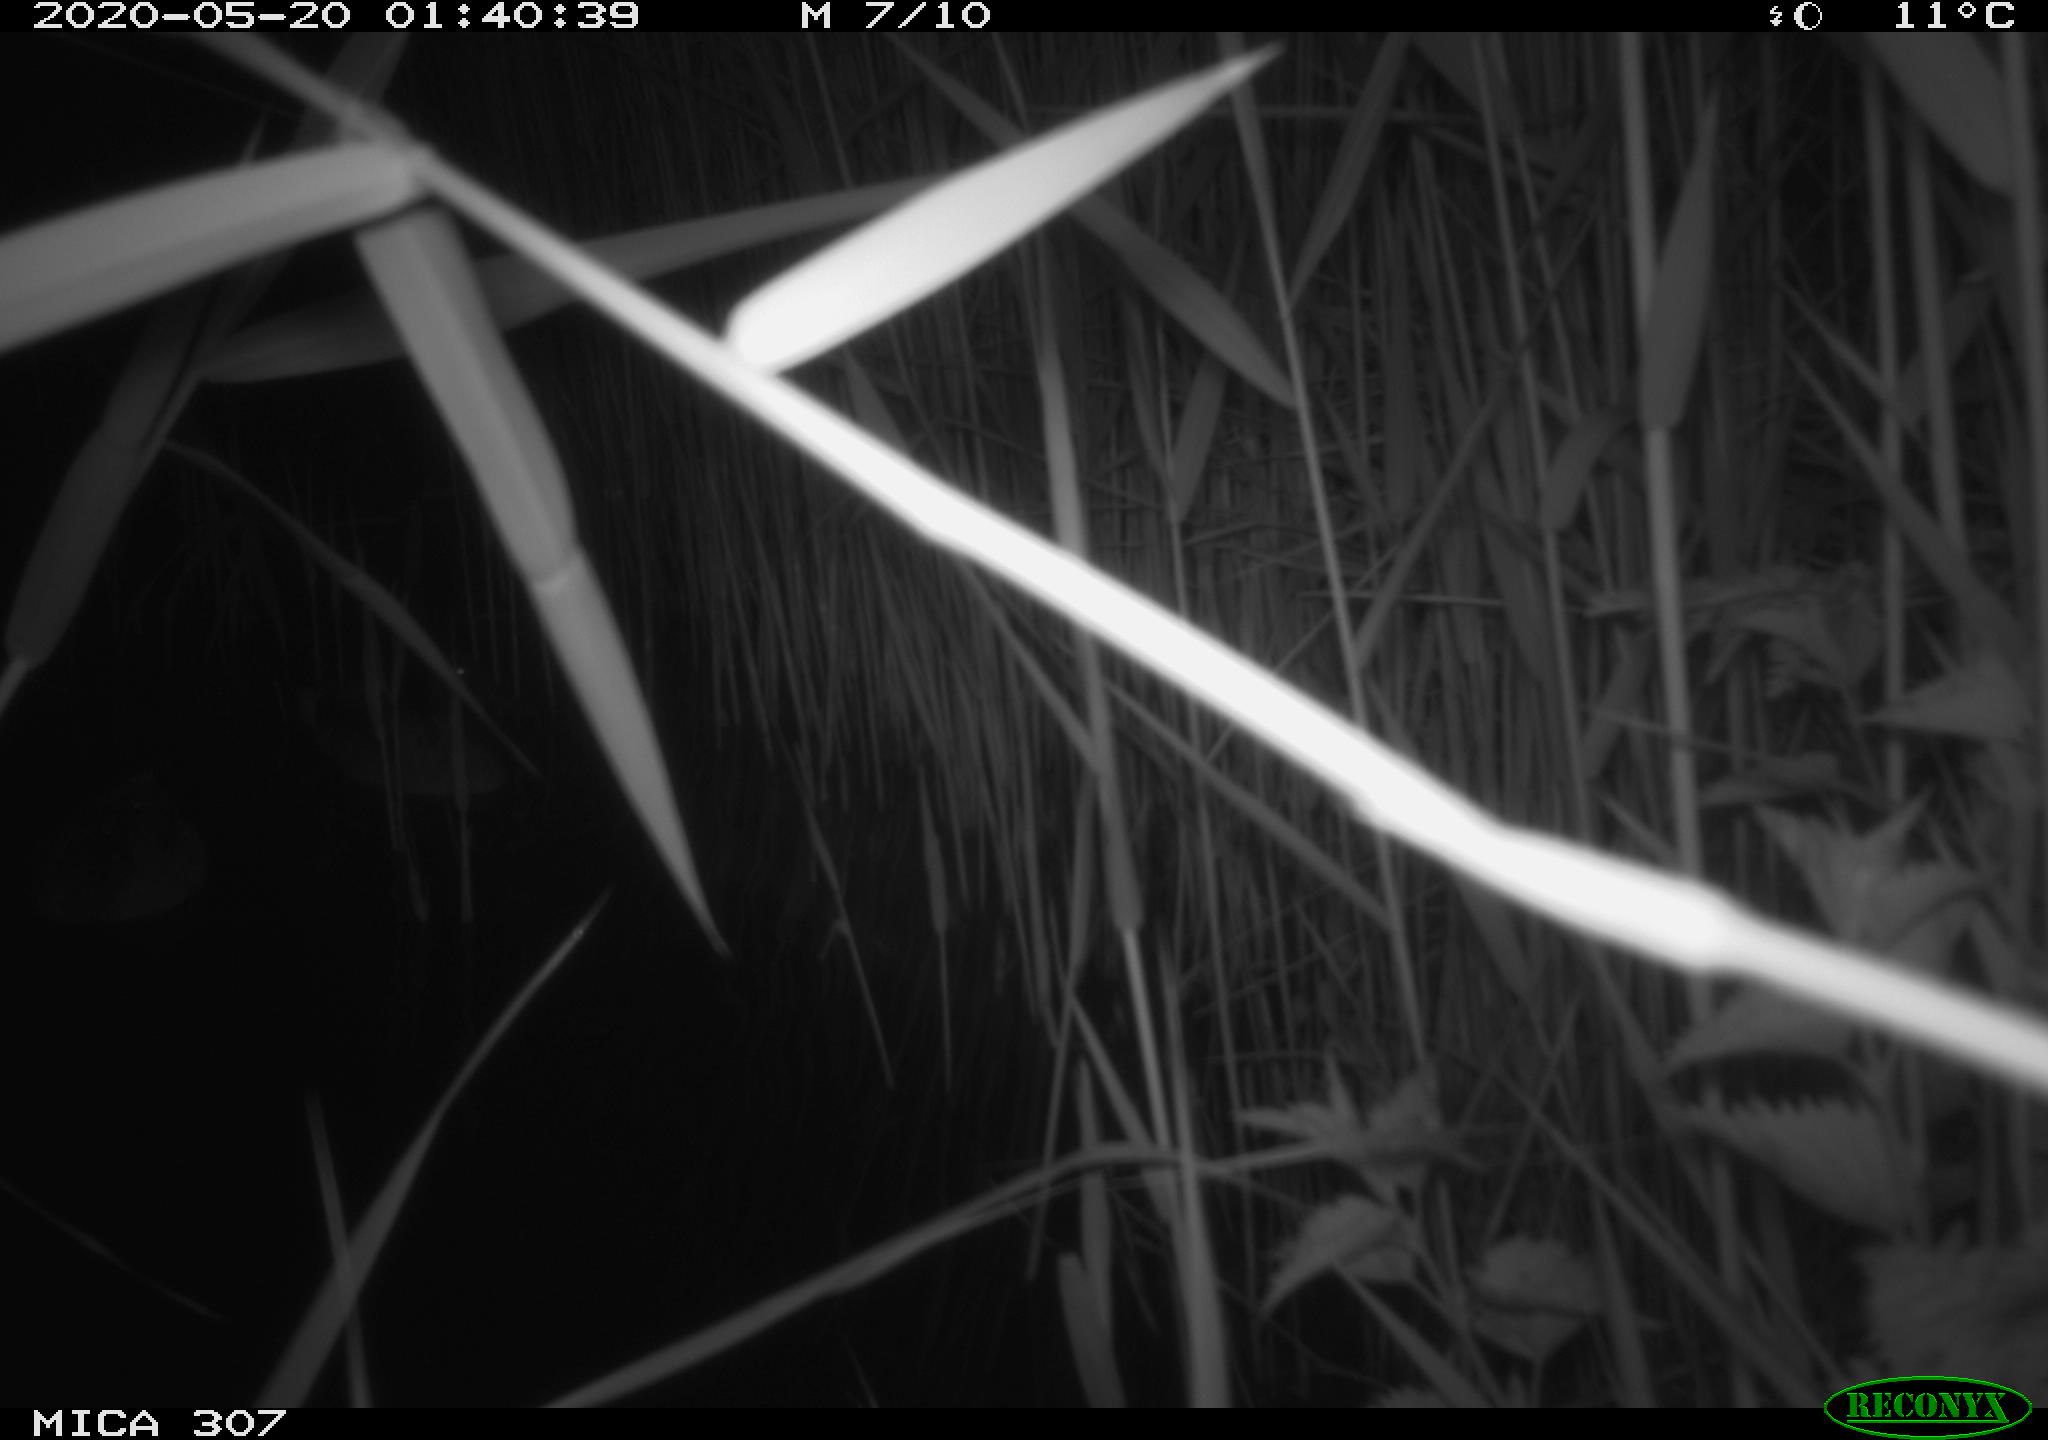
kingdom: Animalia
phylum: Chordata
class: Aves
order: Anseriformes
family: Anatidae
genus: Anas
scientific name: Anas platyrhynchos
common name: Mallard
